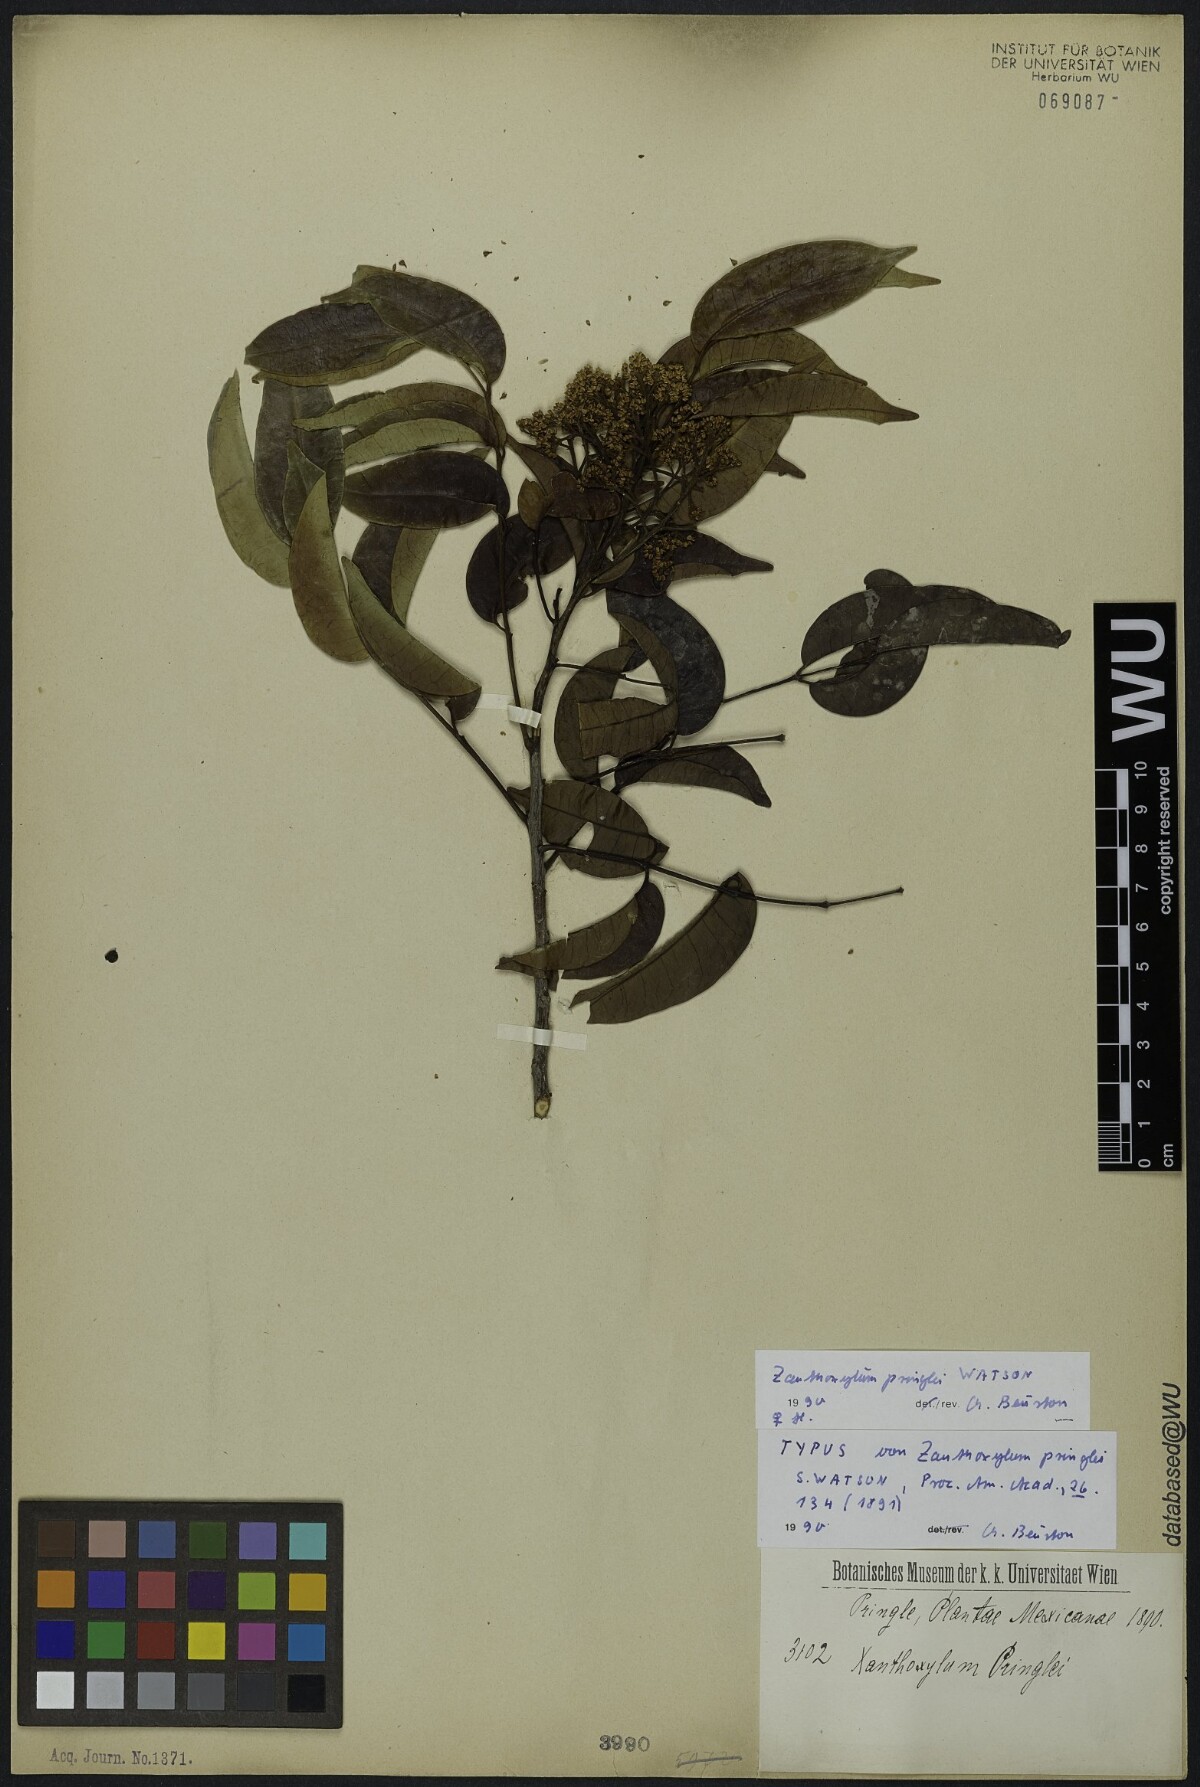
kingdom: Plantae
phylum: Tracheophyta
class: Magnoliopsida
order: Sapindales
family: Rutaceae
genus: Zanthoxylum
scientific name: Zanthoxylum acuminatum
